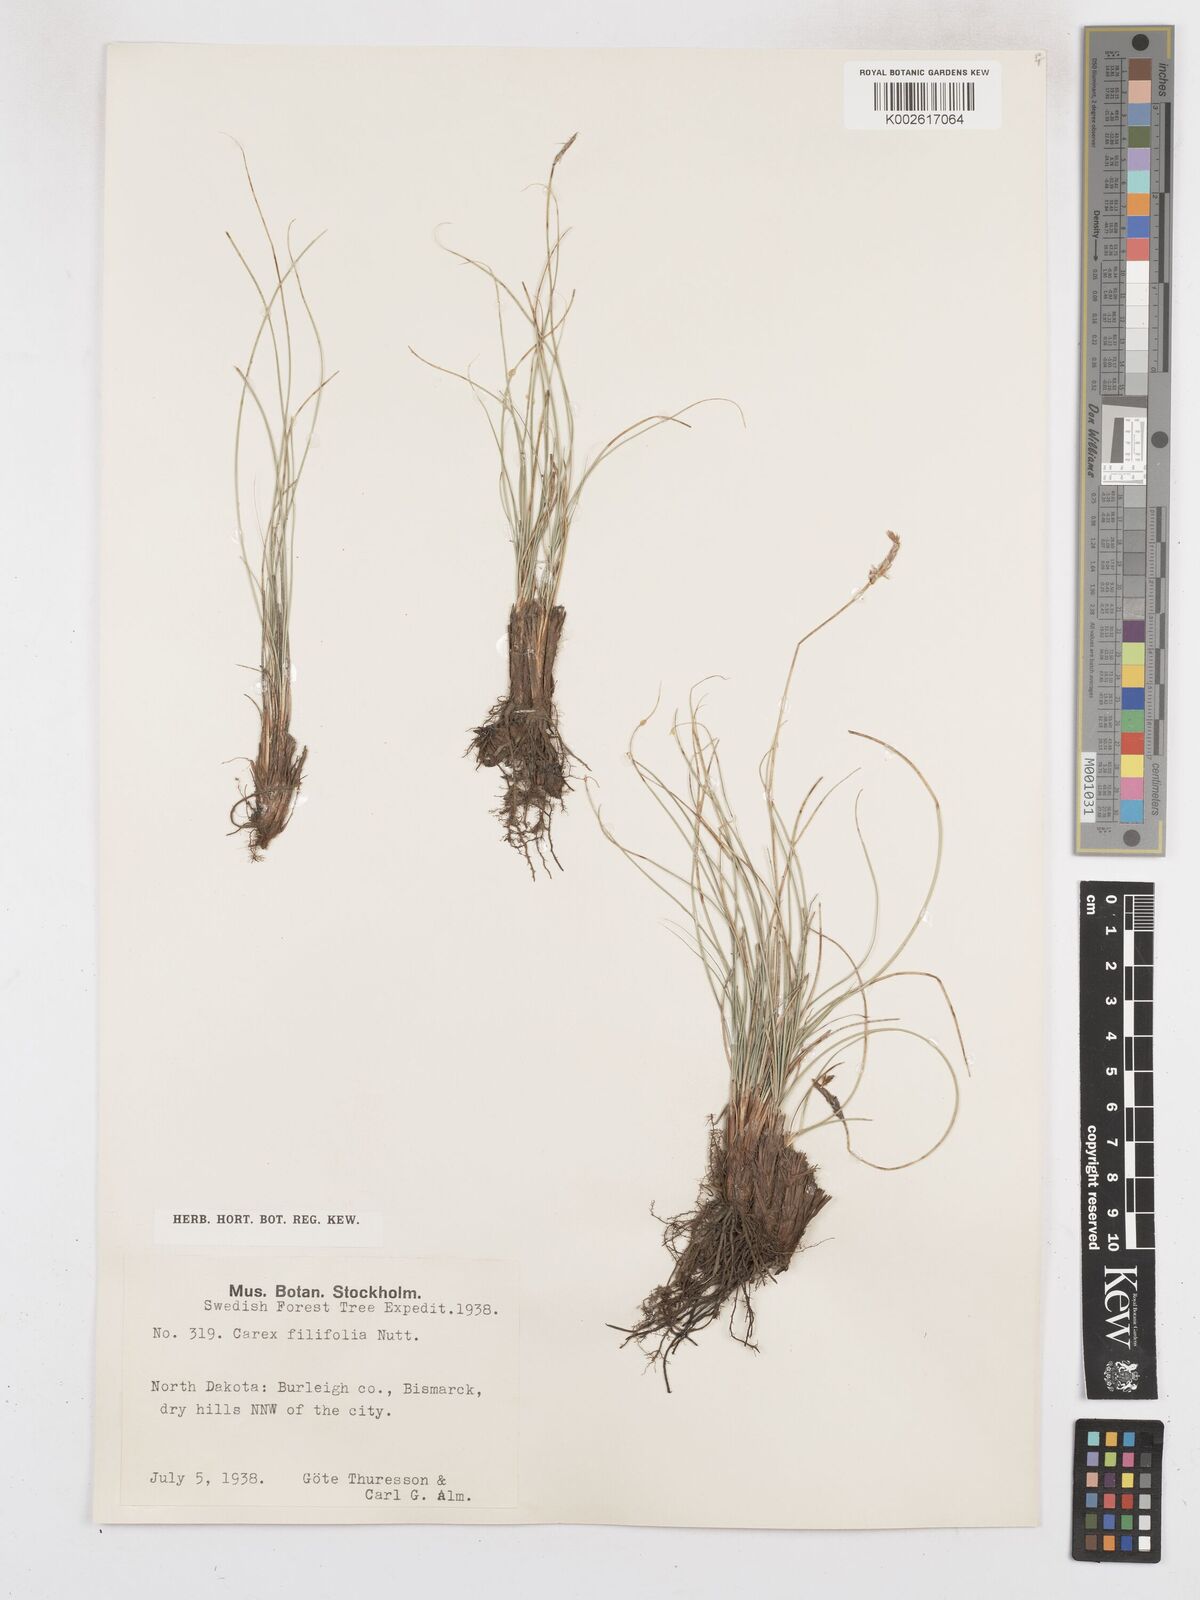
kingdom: Plantae
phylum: Tracheophyta
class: Liliopsida
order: Poales
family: Cyperaceae
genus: Carex
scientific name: Carex filifolia
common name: Threadleaf sedge
